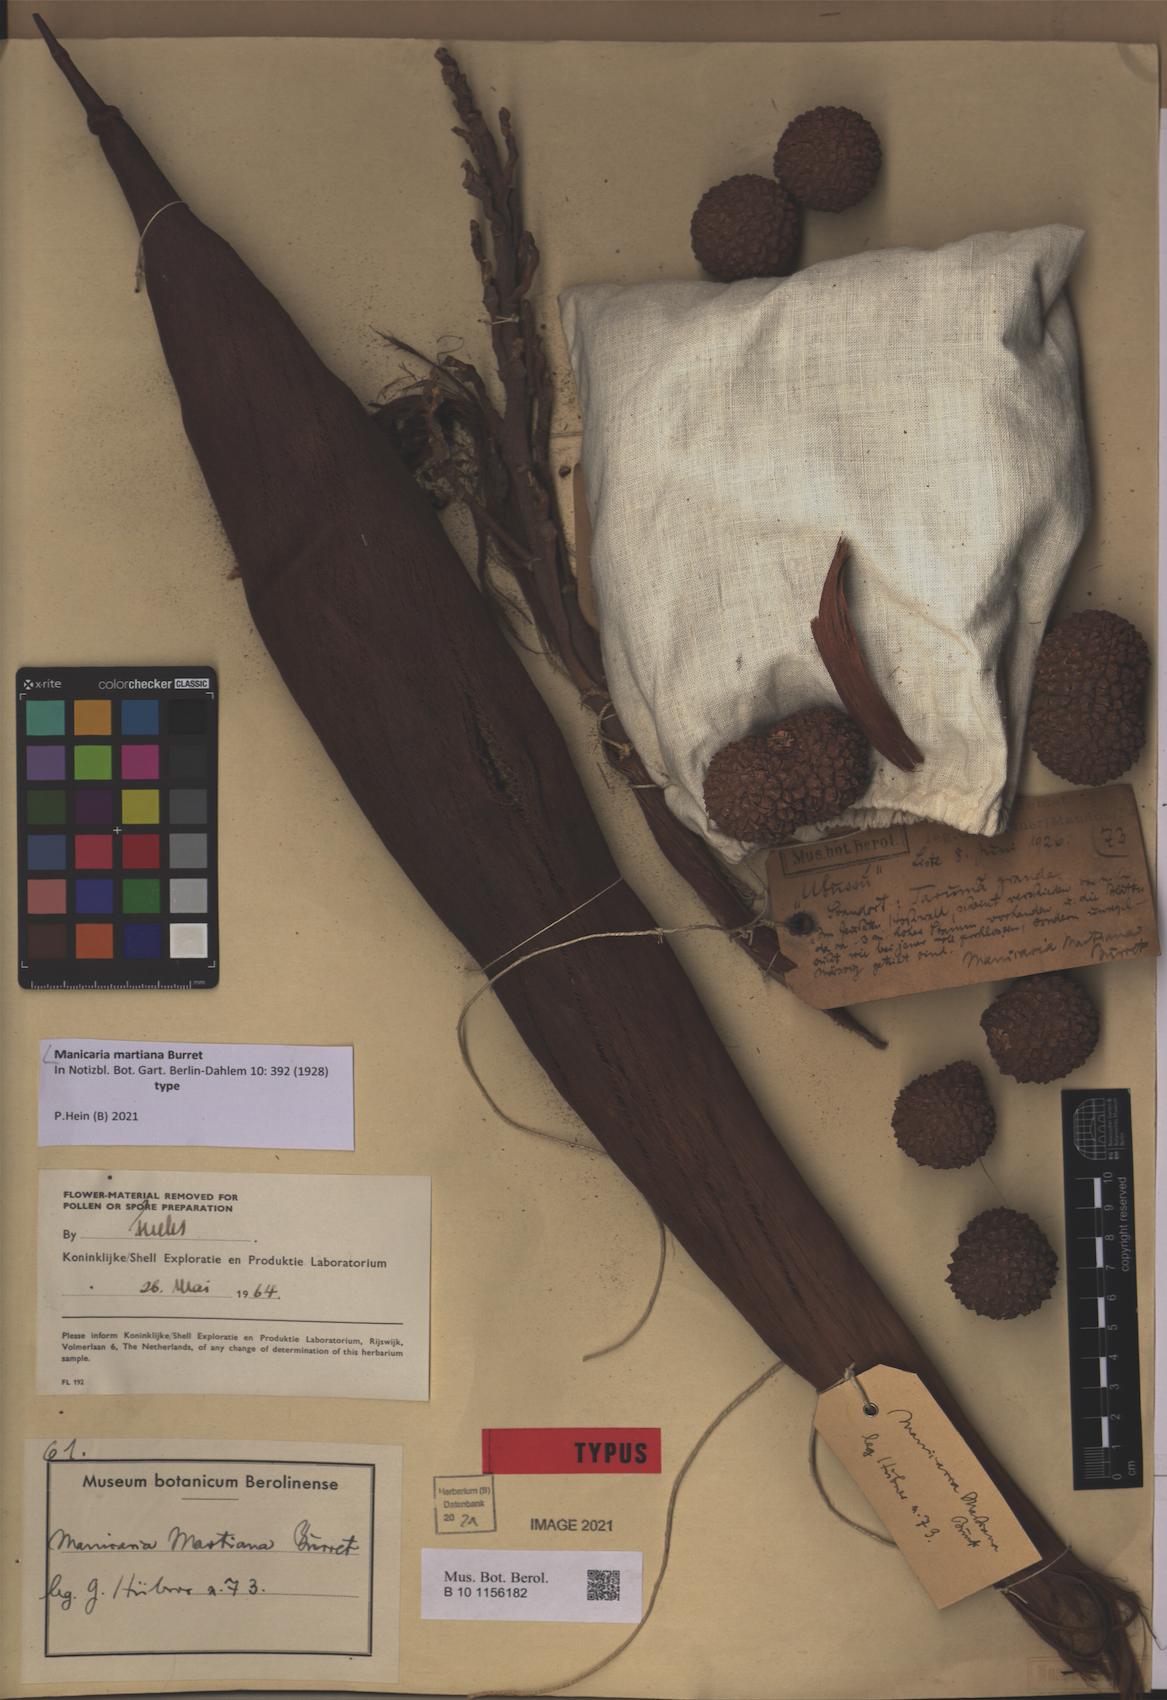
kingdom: Plantae
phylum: Tracheophyta
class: Liliopsida
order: Arecales
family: Arecaceae
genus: Manicaria
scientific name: Manicaria martiana
